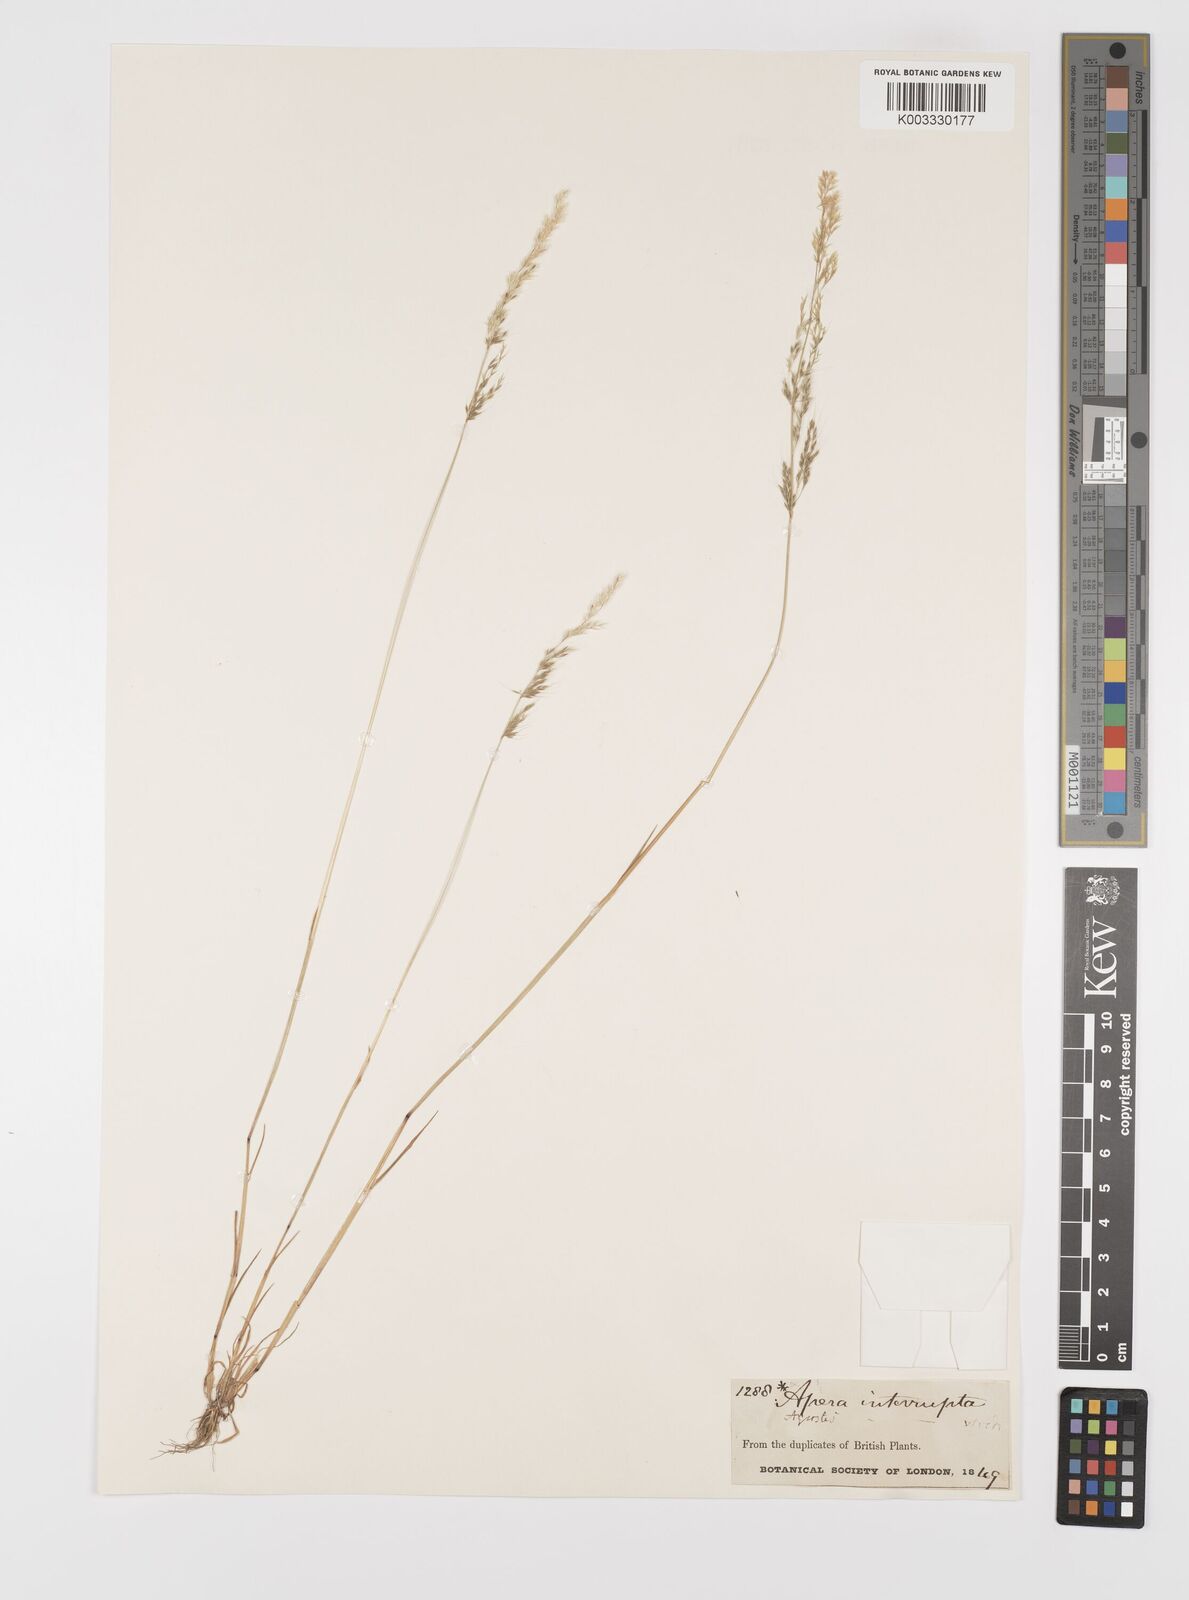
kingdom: Plantae
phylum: Tracheophyta
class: Liliopsida
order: Poales
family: Poaceae
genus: Apera
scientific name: Apera interrupta
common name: Dense silky-bent
